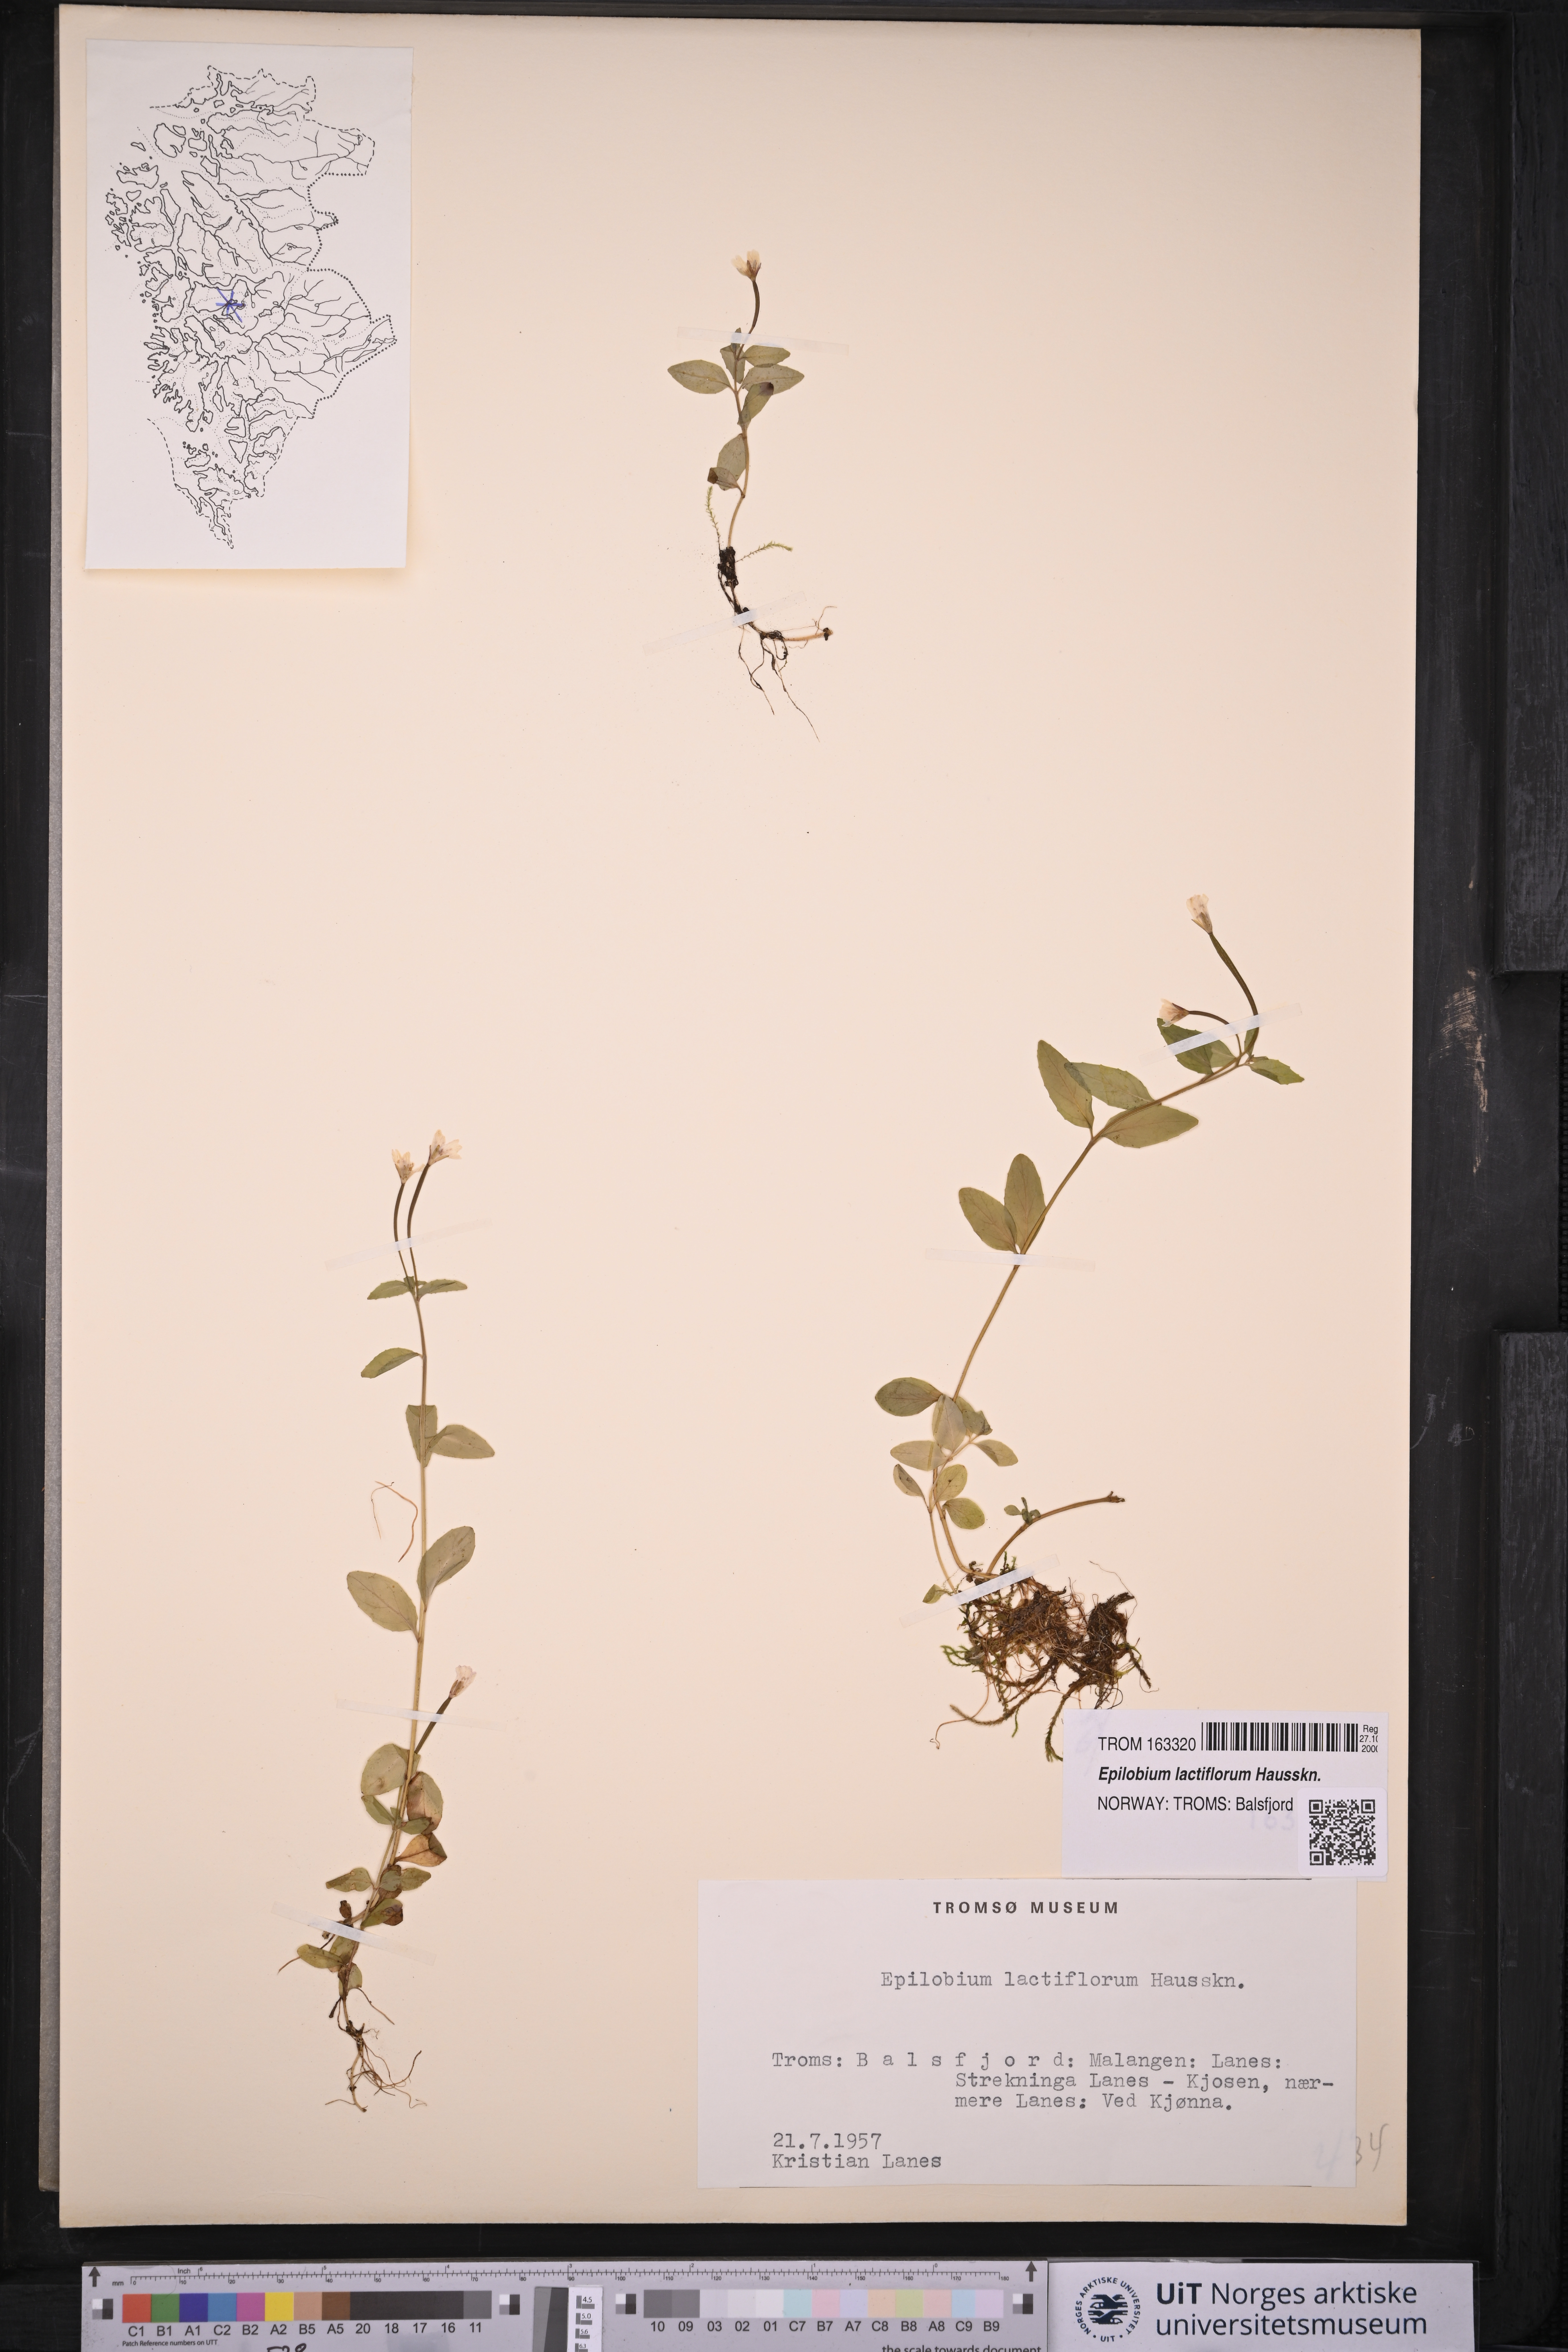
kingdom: Plantae
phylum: Tracheophyta
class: Magnoliopsida
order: Myrtales
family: Onagraceae
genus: Epilobium
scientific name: Epilobium lactiflorum
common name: Milkflower willowherb
